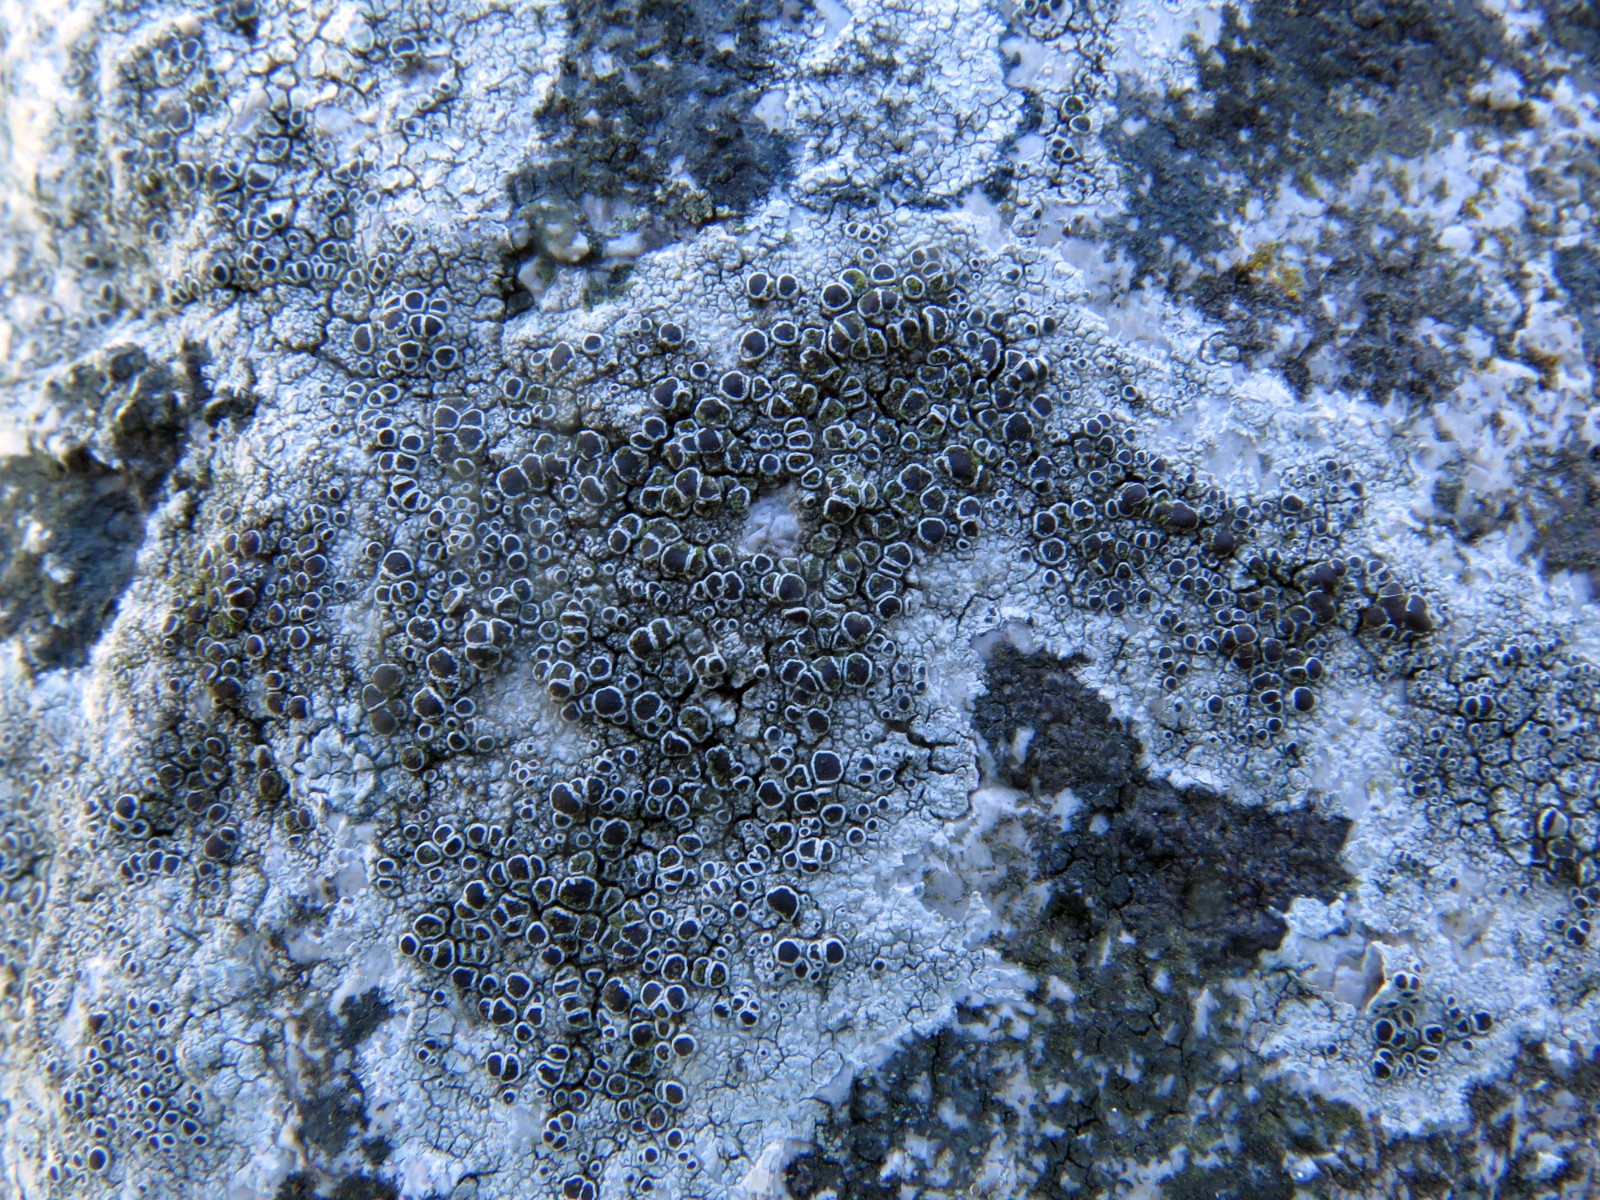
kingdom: Fungi
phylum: Ascomycota
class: Lecanoromycetes
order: Lecanorales
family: Lecanoraceae
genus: Lecanora
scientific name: Lecanora campestris
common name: mur-kantskivelav
